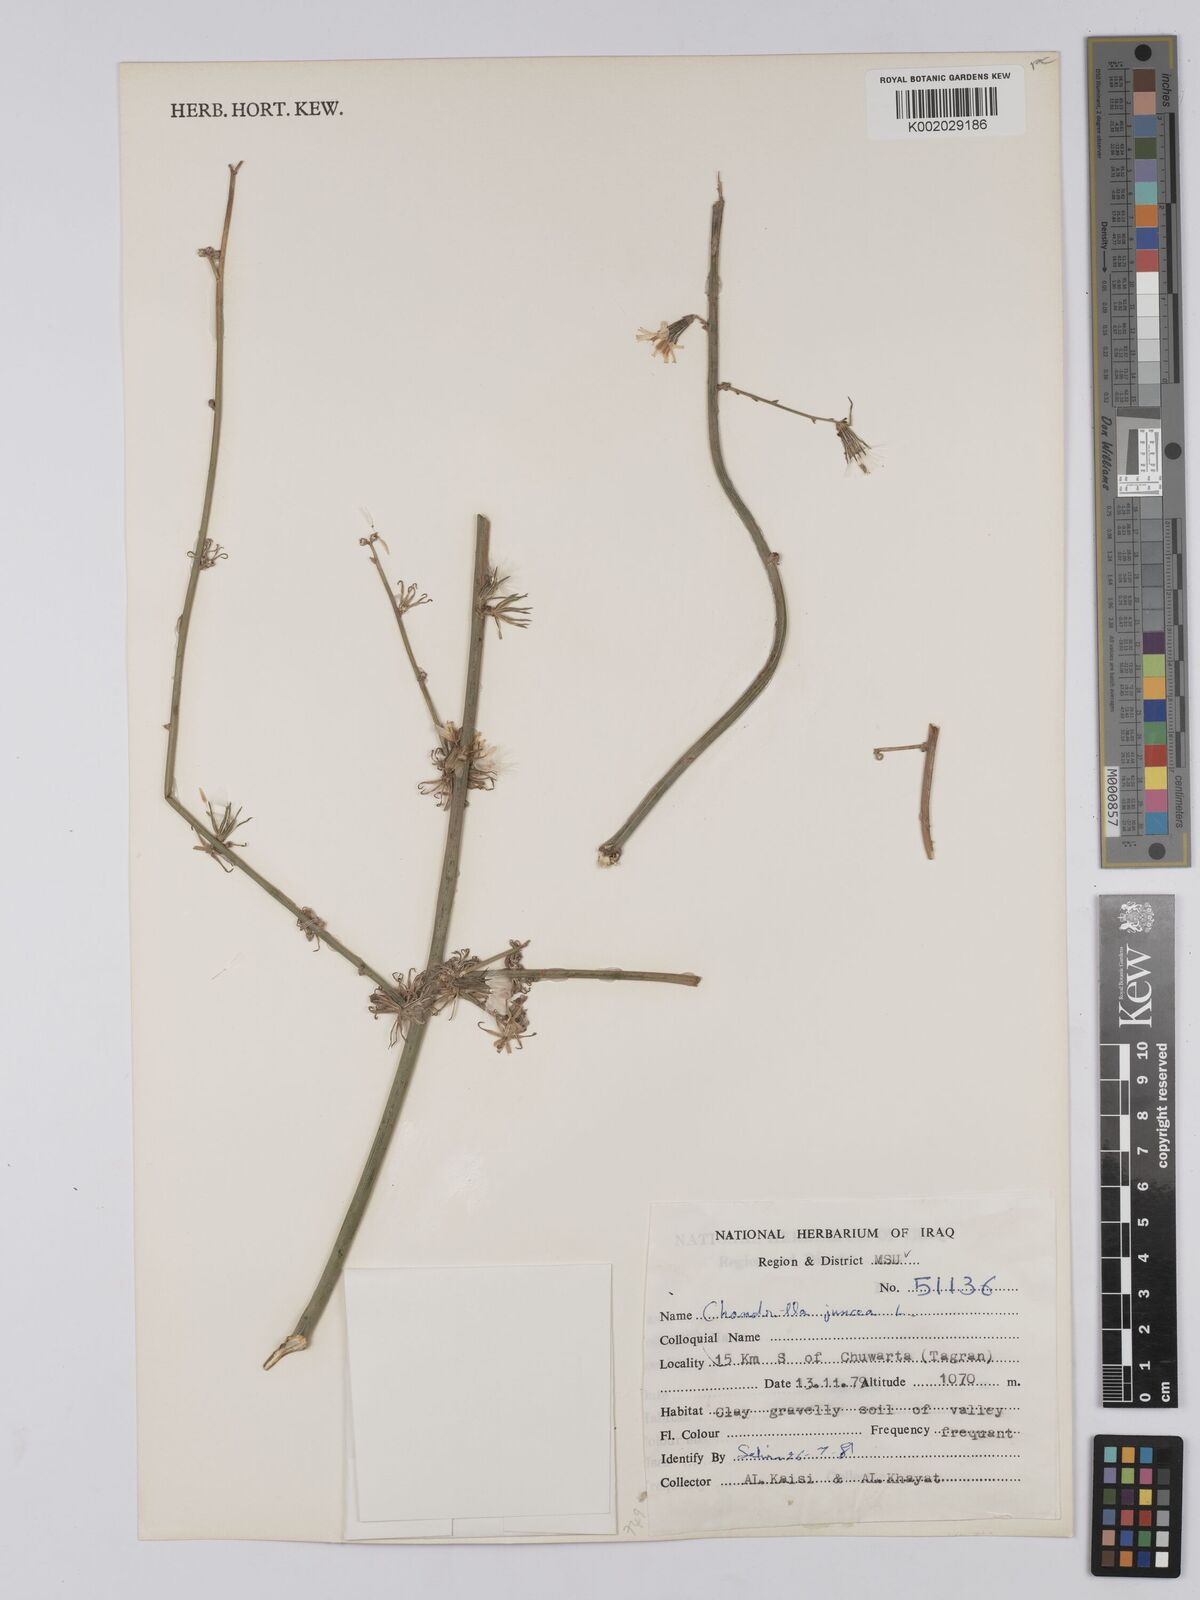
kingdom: Plantae
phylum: Tracheophyta
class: Magnoliopsida
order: Asterales
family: Asteraceae
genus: Chondrilla
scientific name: Chondrilla juncea
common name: Skeleton weed
